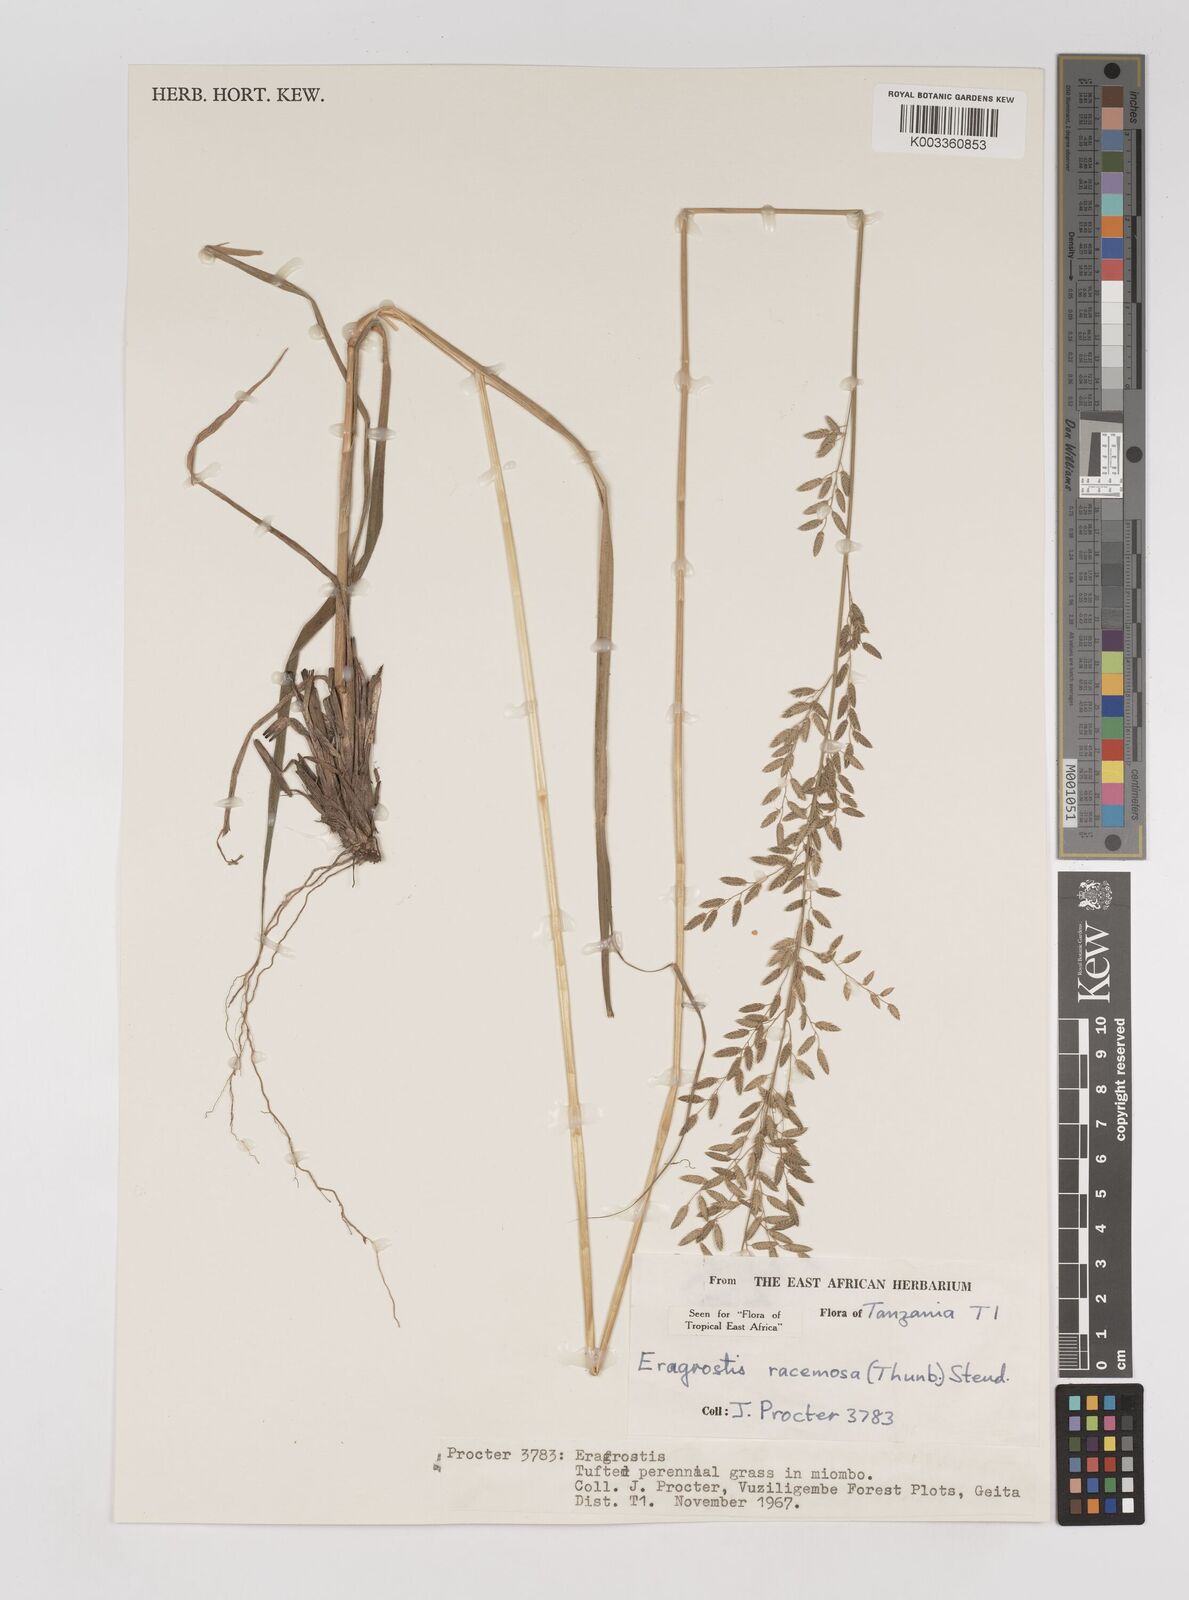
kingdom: Plantae
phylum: Tracheophyta
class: Liliopsida
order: Poales
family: Poaceae
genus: Eragrostis
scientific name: Eragrostis racemosa
